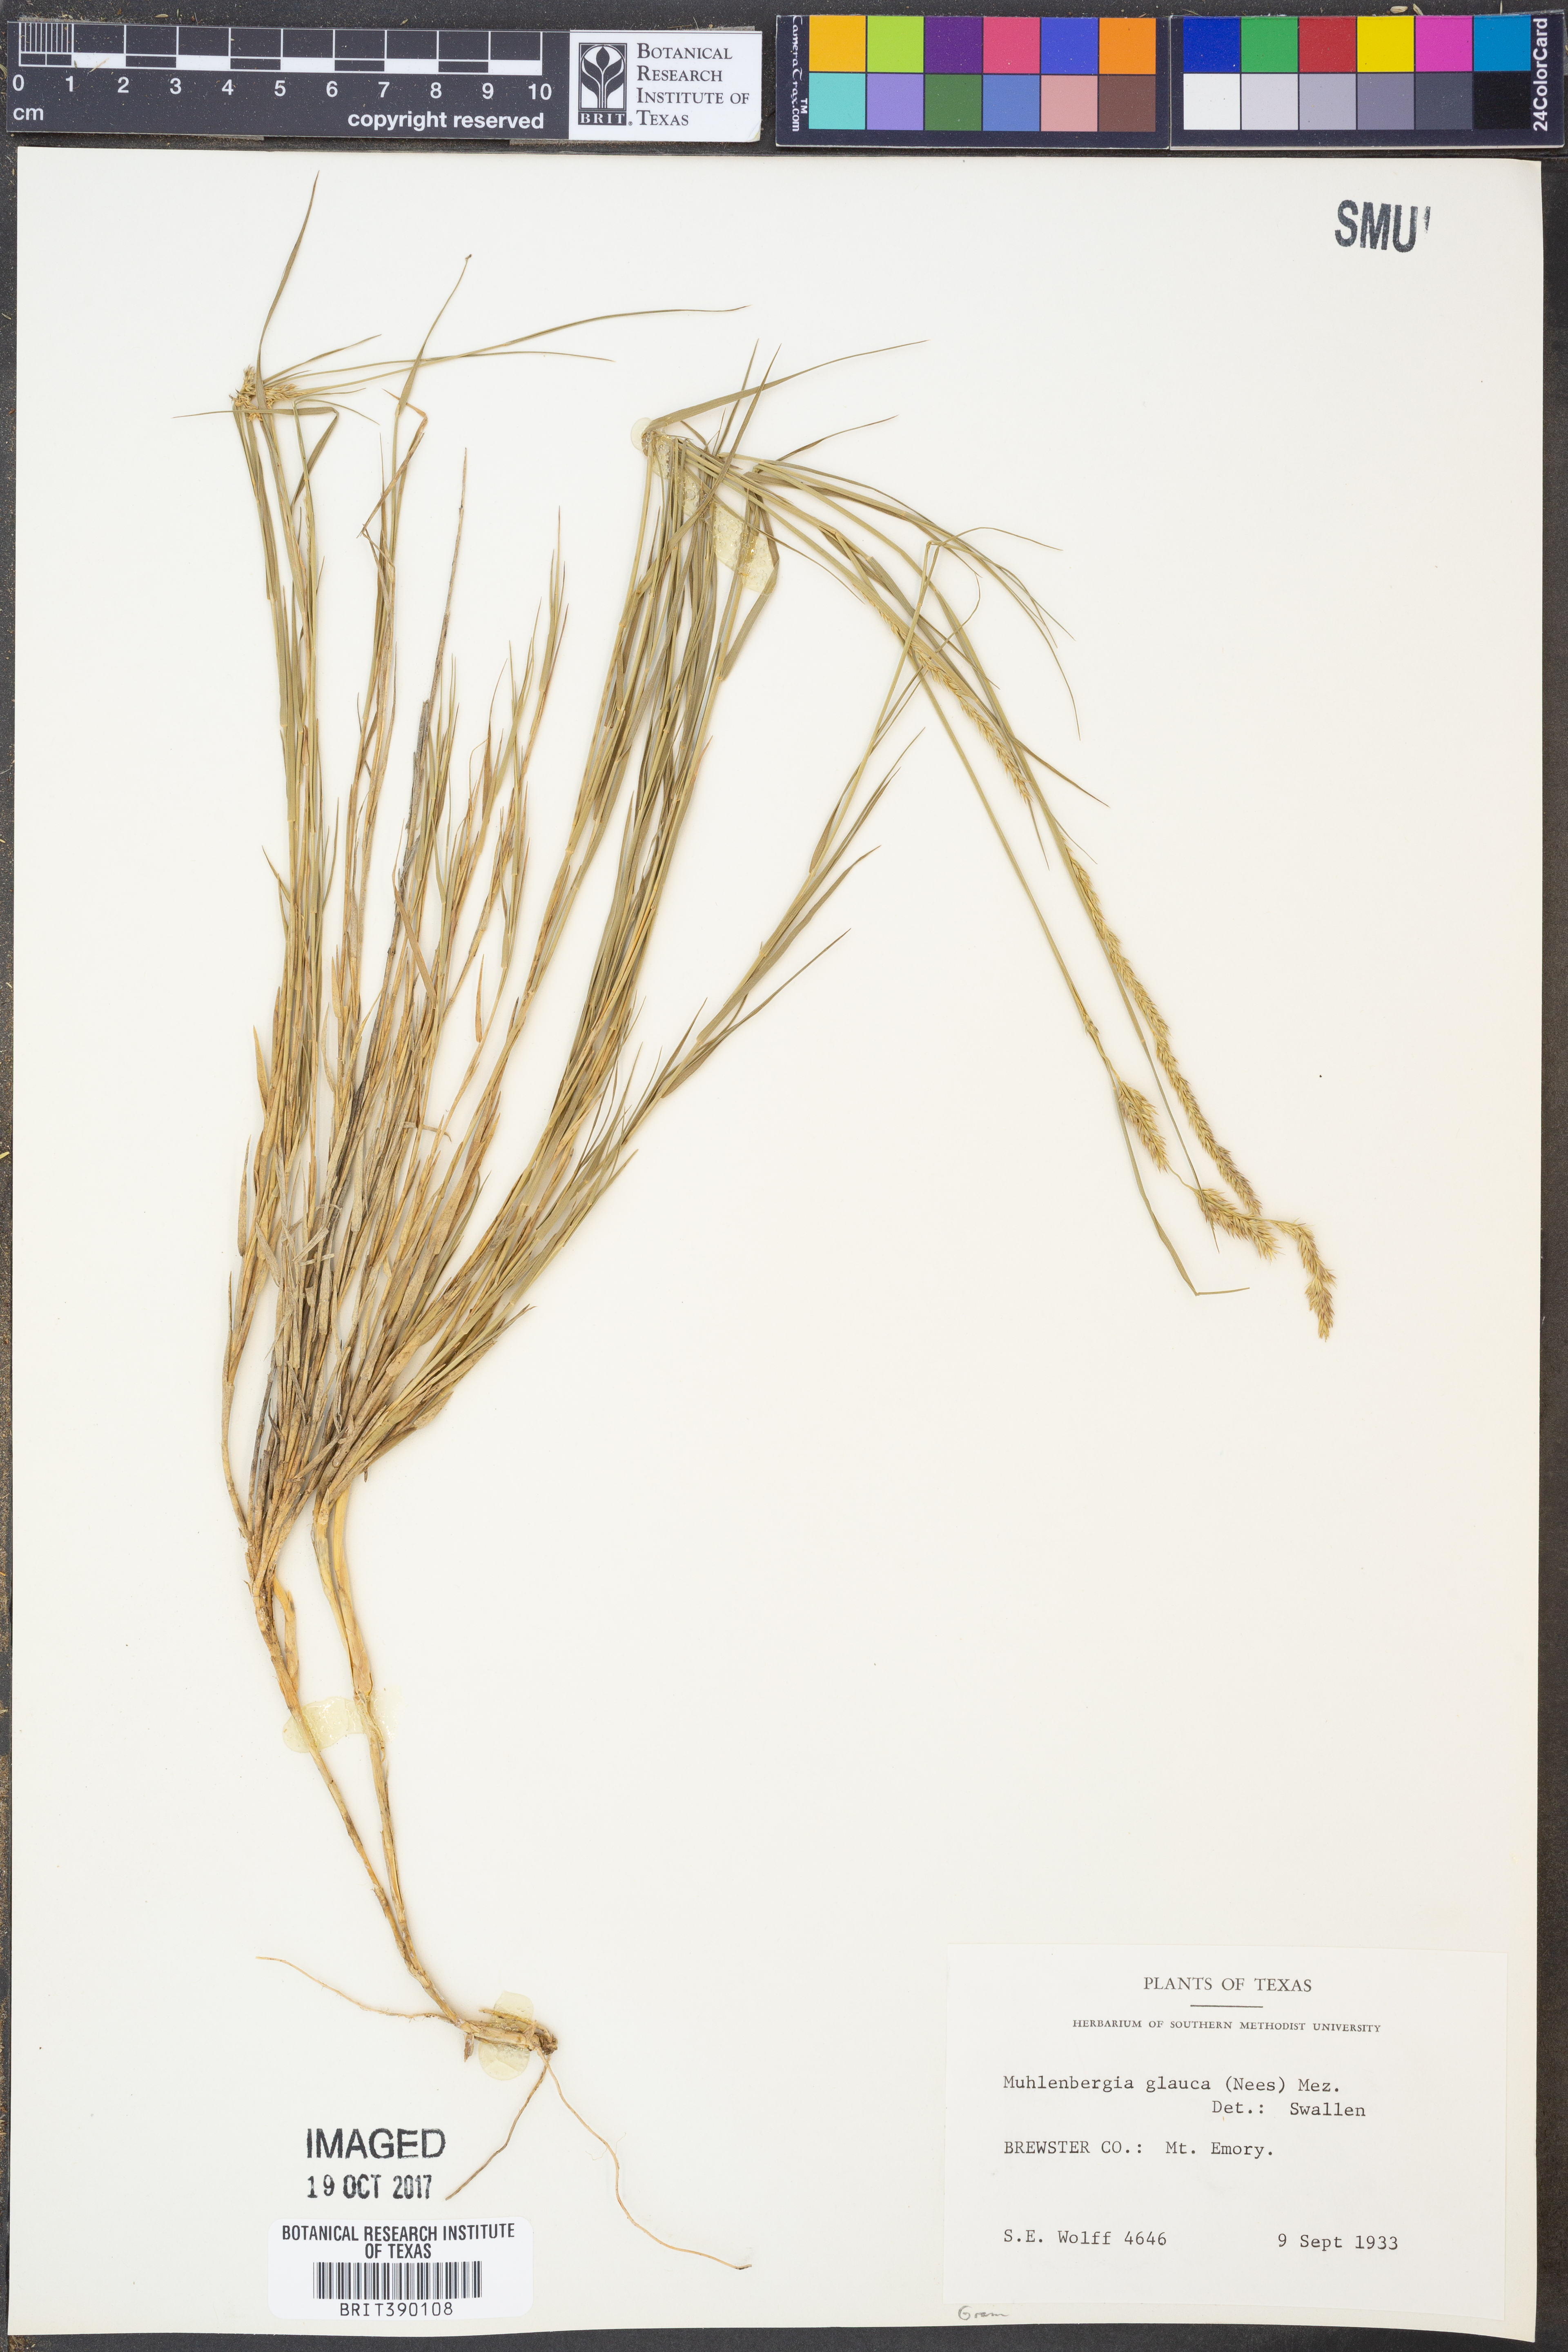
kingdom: Plantae
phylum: Tracheophyta
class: Liliopsida
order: Poales
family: Poaceae
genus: Muhlenbergia
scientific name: Muhlenbergia glauca
